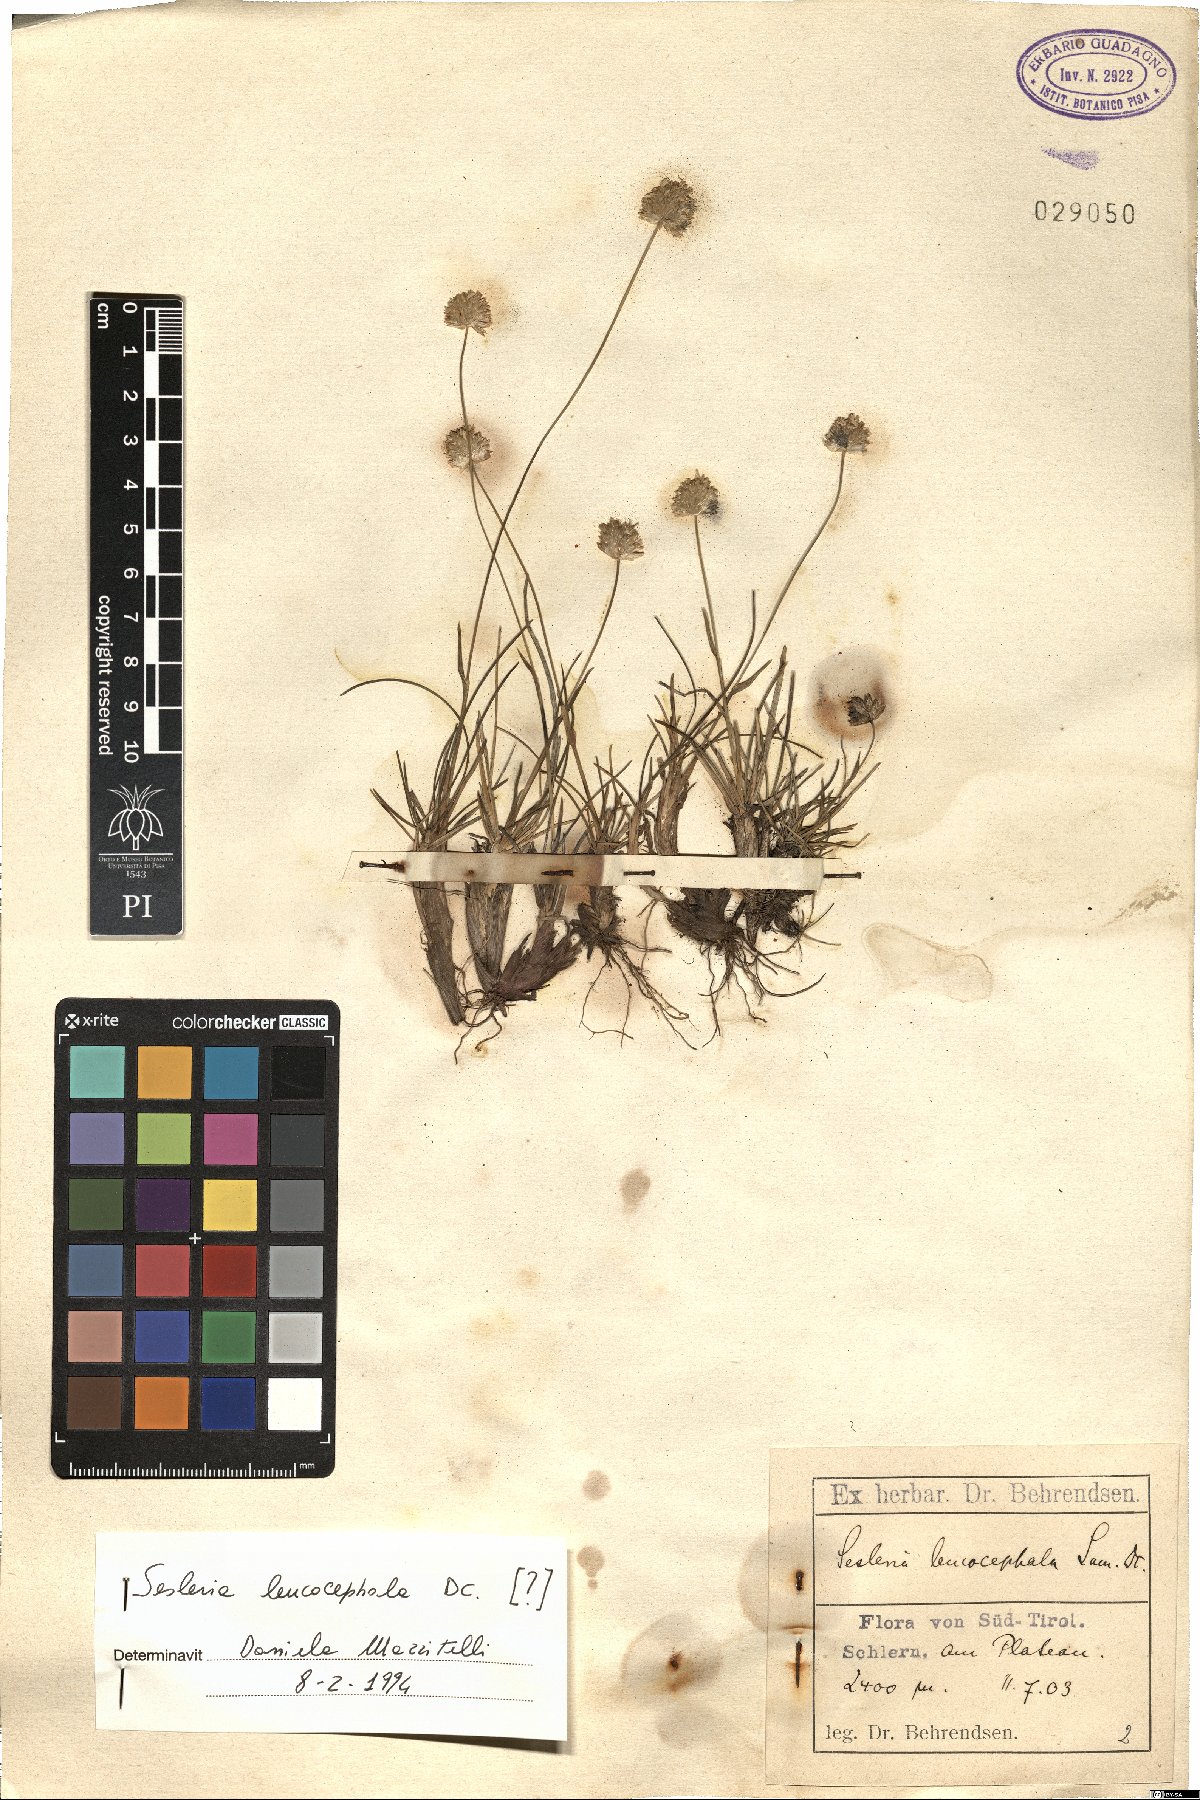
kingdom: Plantae
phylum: Tracheophyta
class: Liliopsida
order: Poales
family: Poaceae
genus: Sesleriella
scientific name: Sesleriella sphaerocephala
